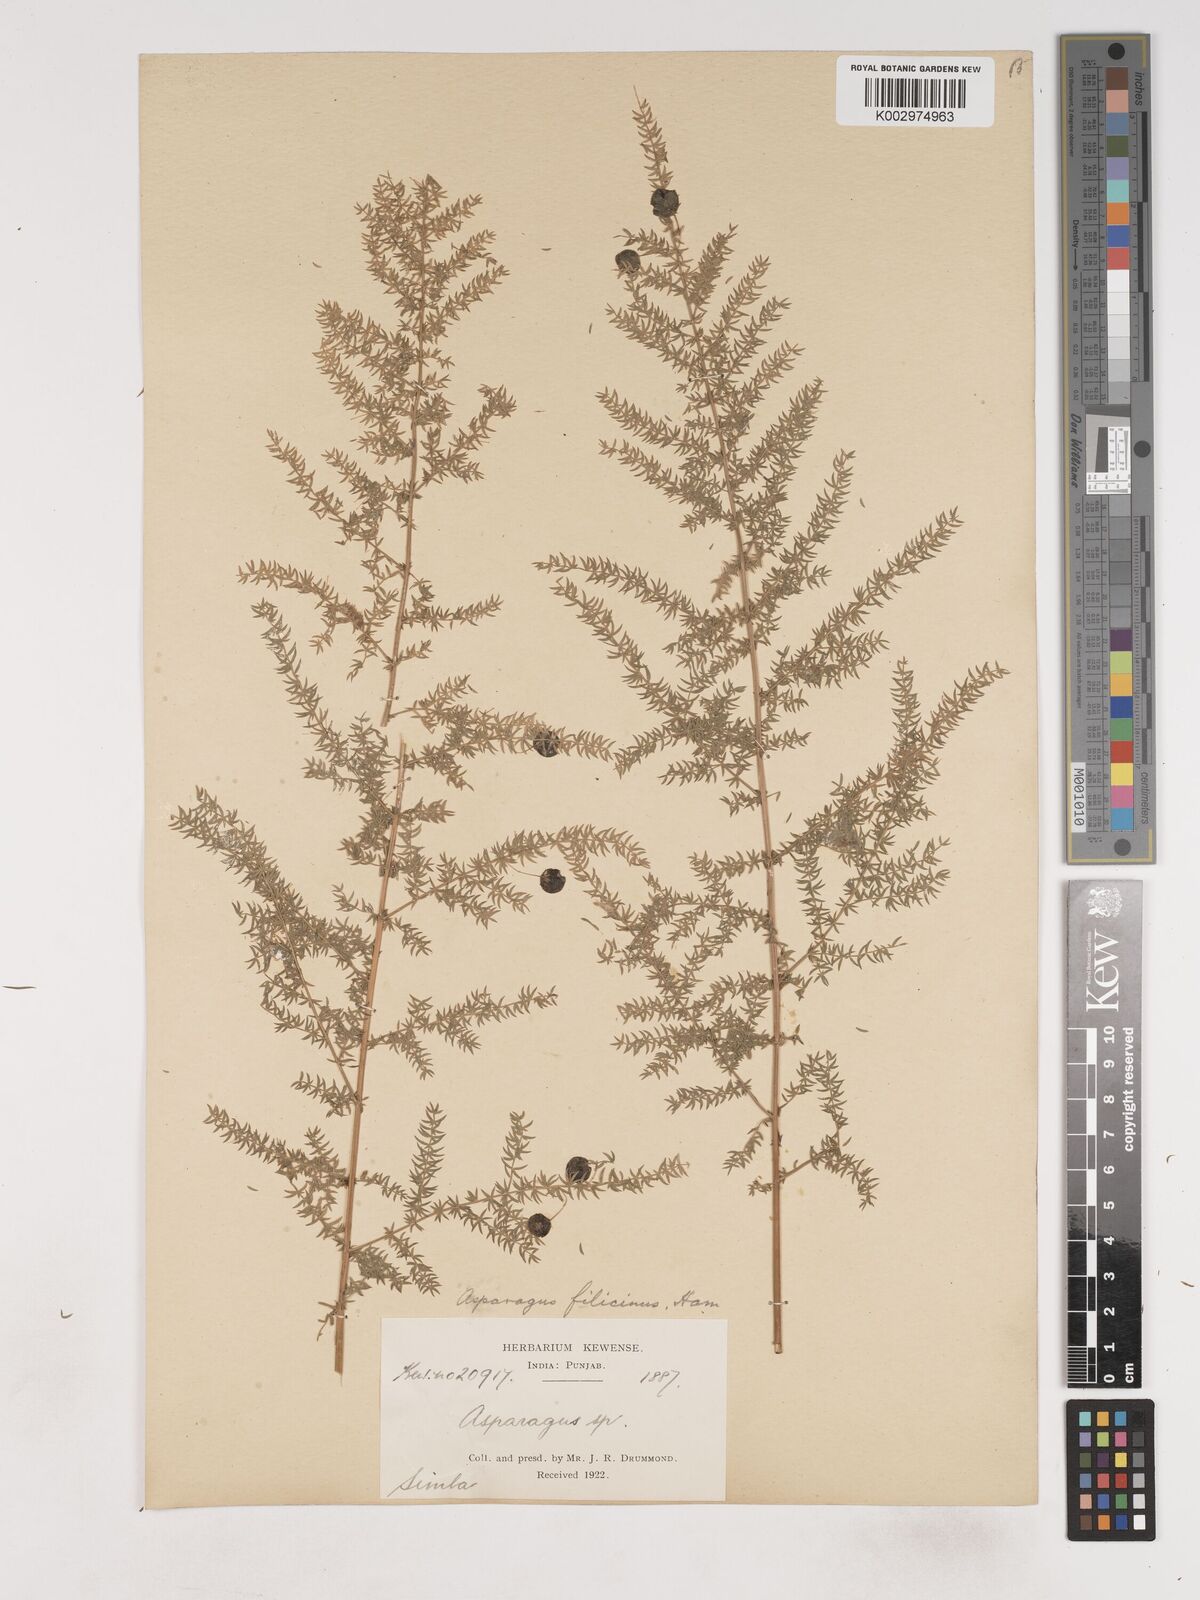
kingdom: Plantae
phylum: Tracheophyta
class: Liliopsida
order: Asparagales
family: Asparagaceae
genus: Asparagus
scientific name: Asparagus filicinus
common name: Fern asparagus
